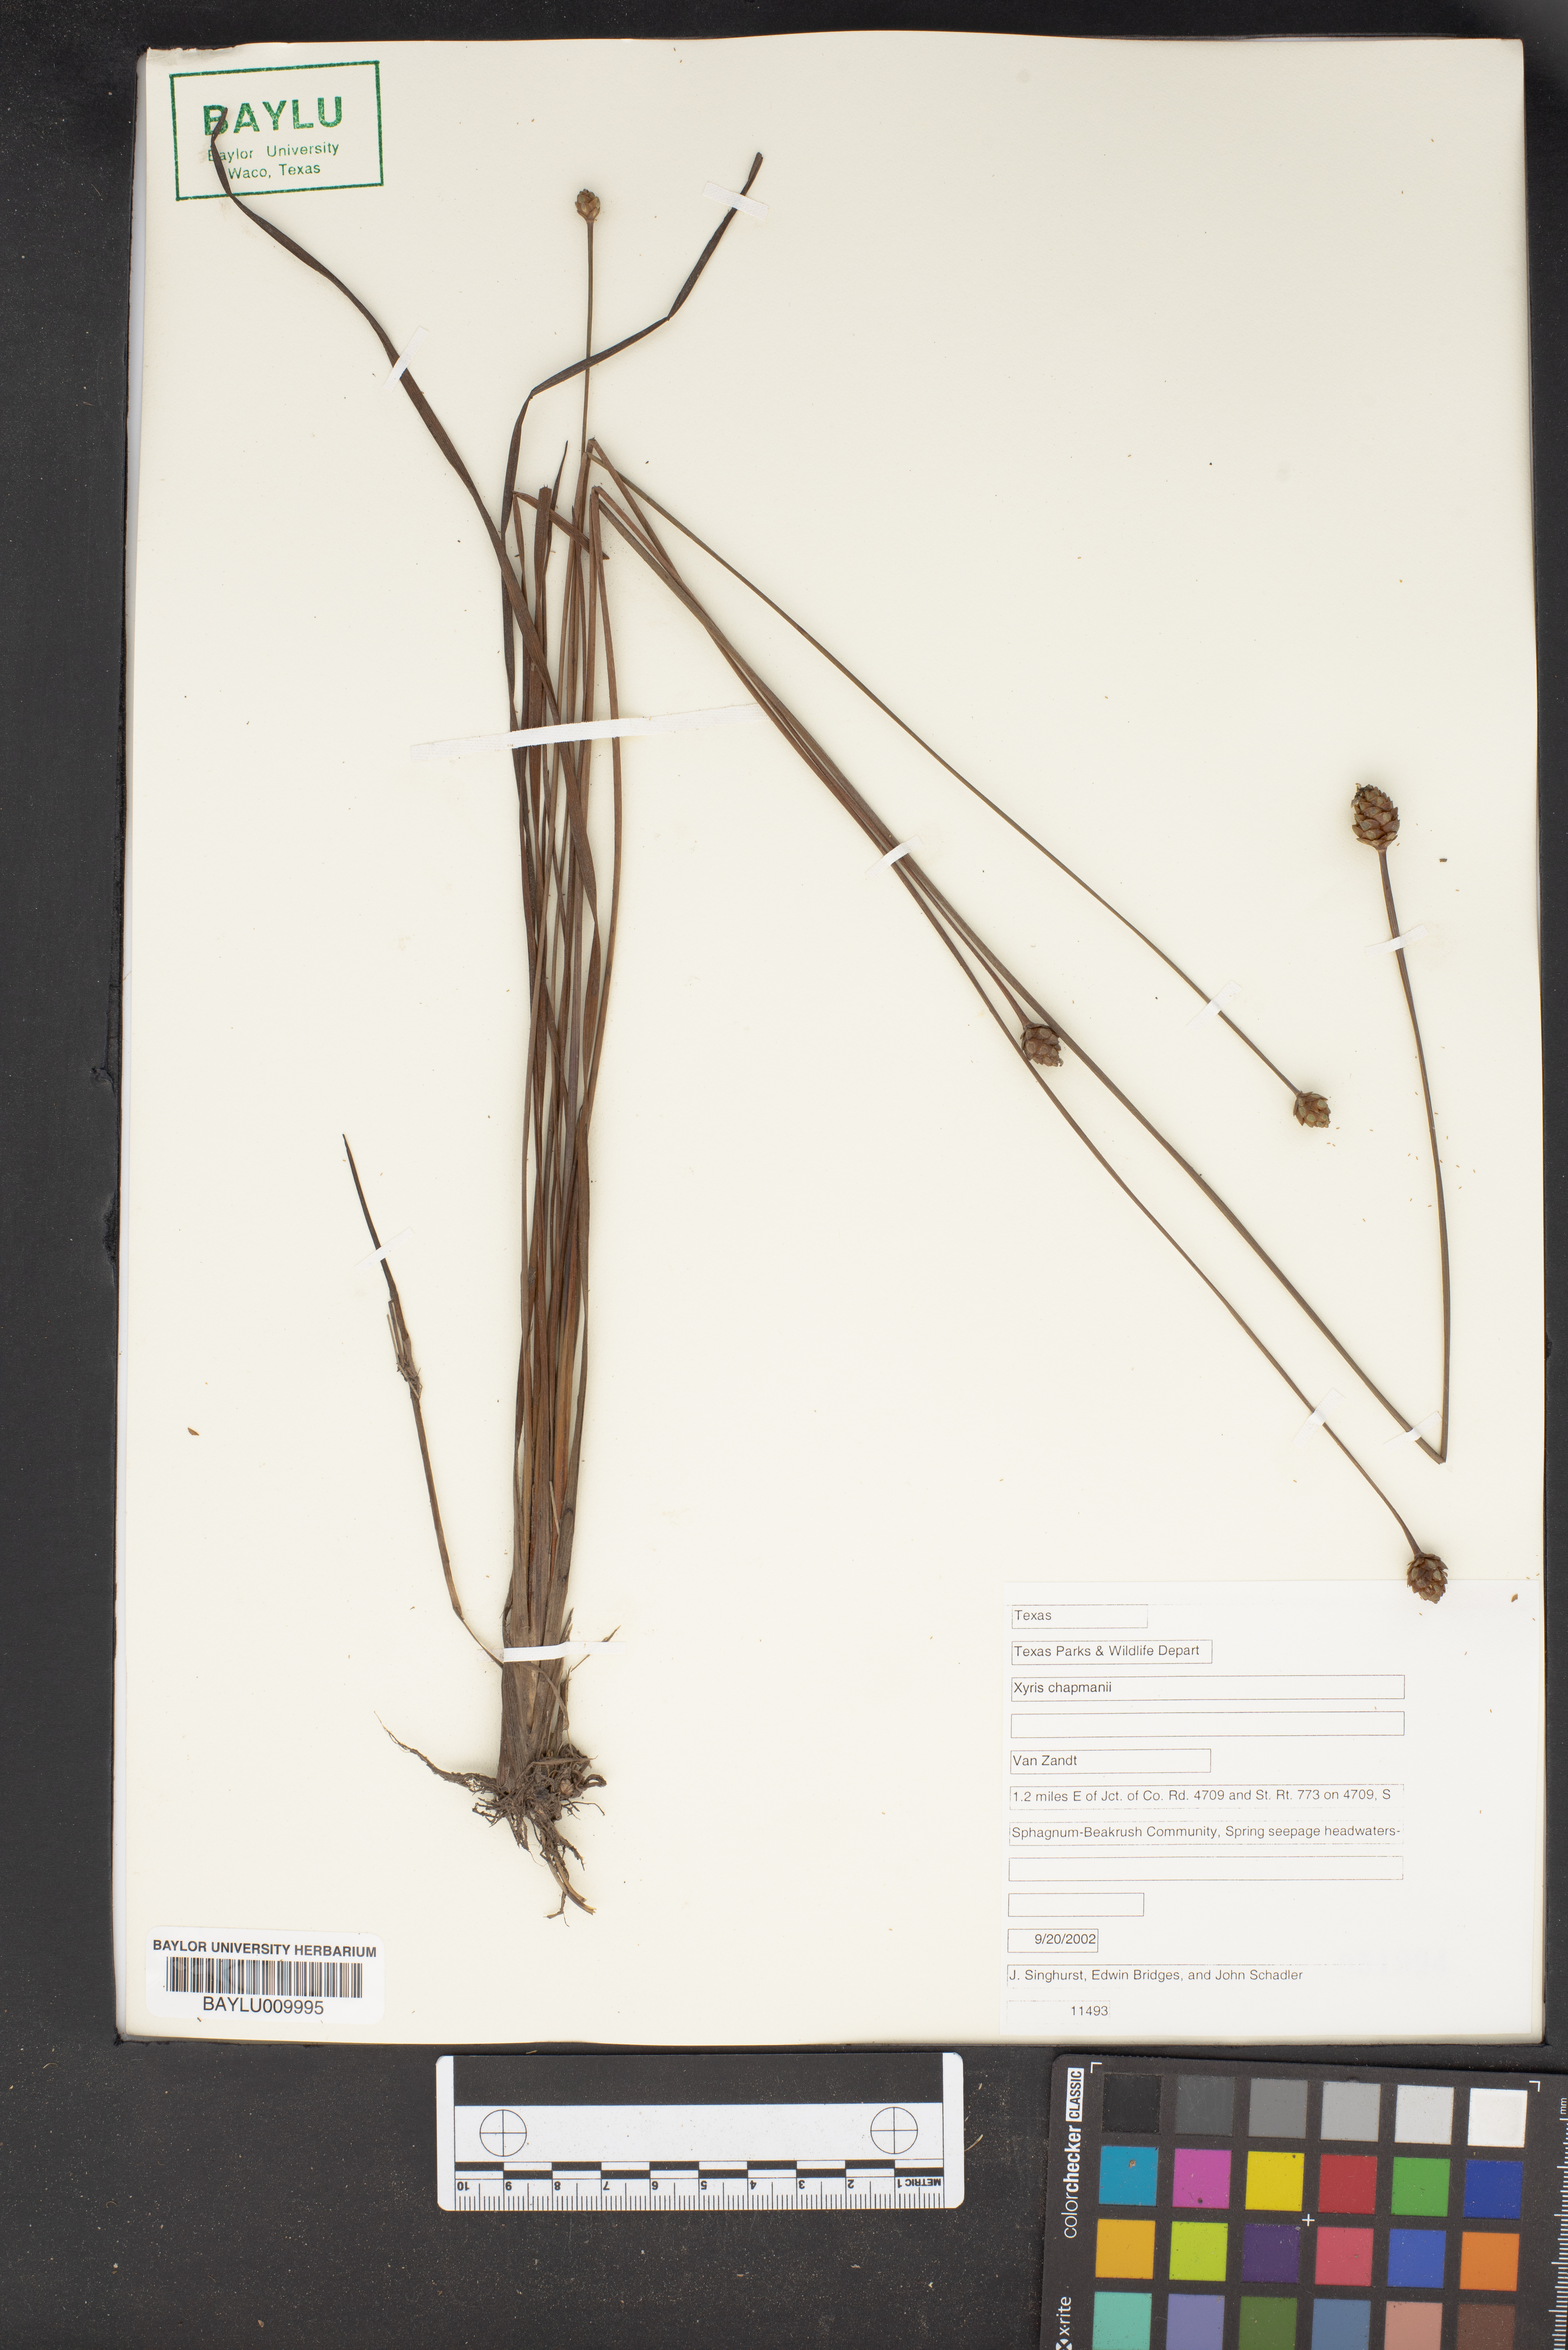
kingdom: Plantae
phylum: Tracheophyta
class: Liliopsida
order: Poales
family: Xyridaceae
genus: Xyris
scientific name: Xyris chapmanii
